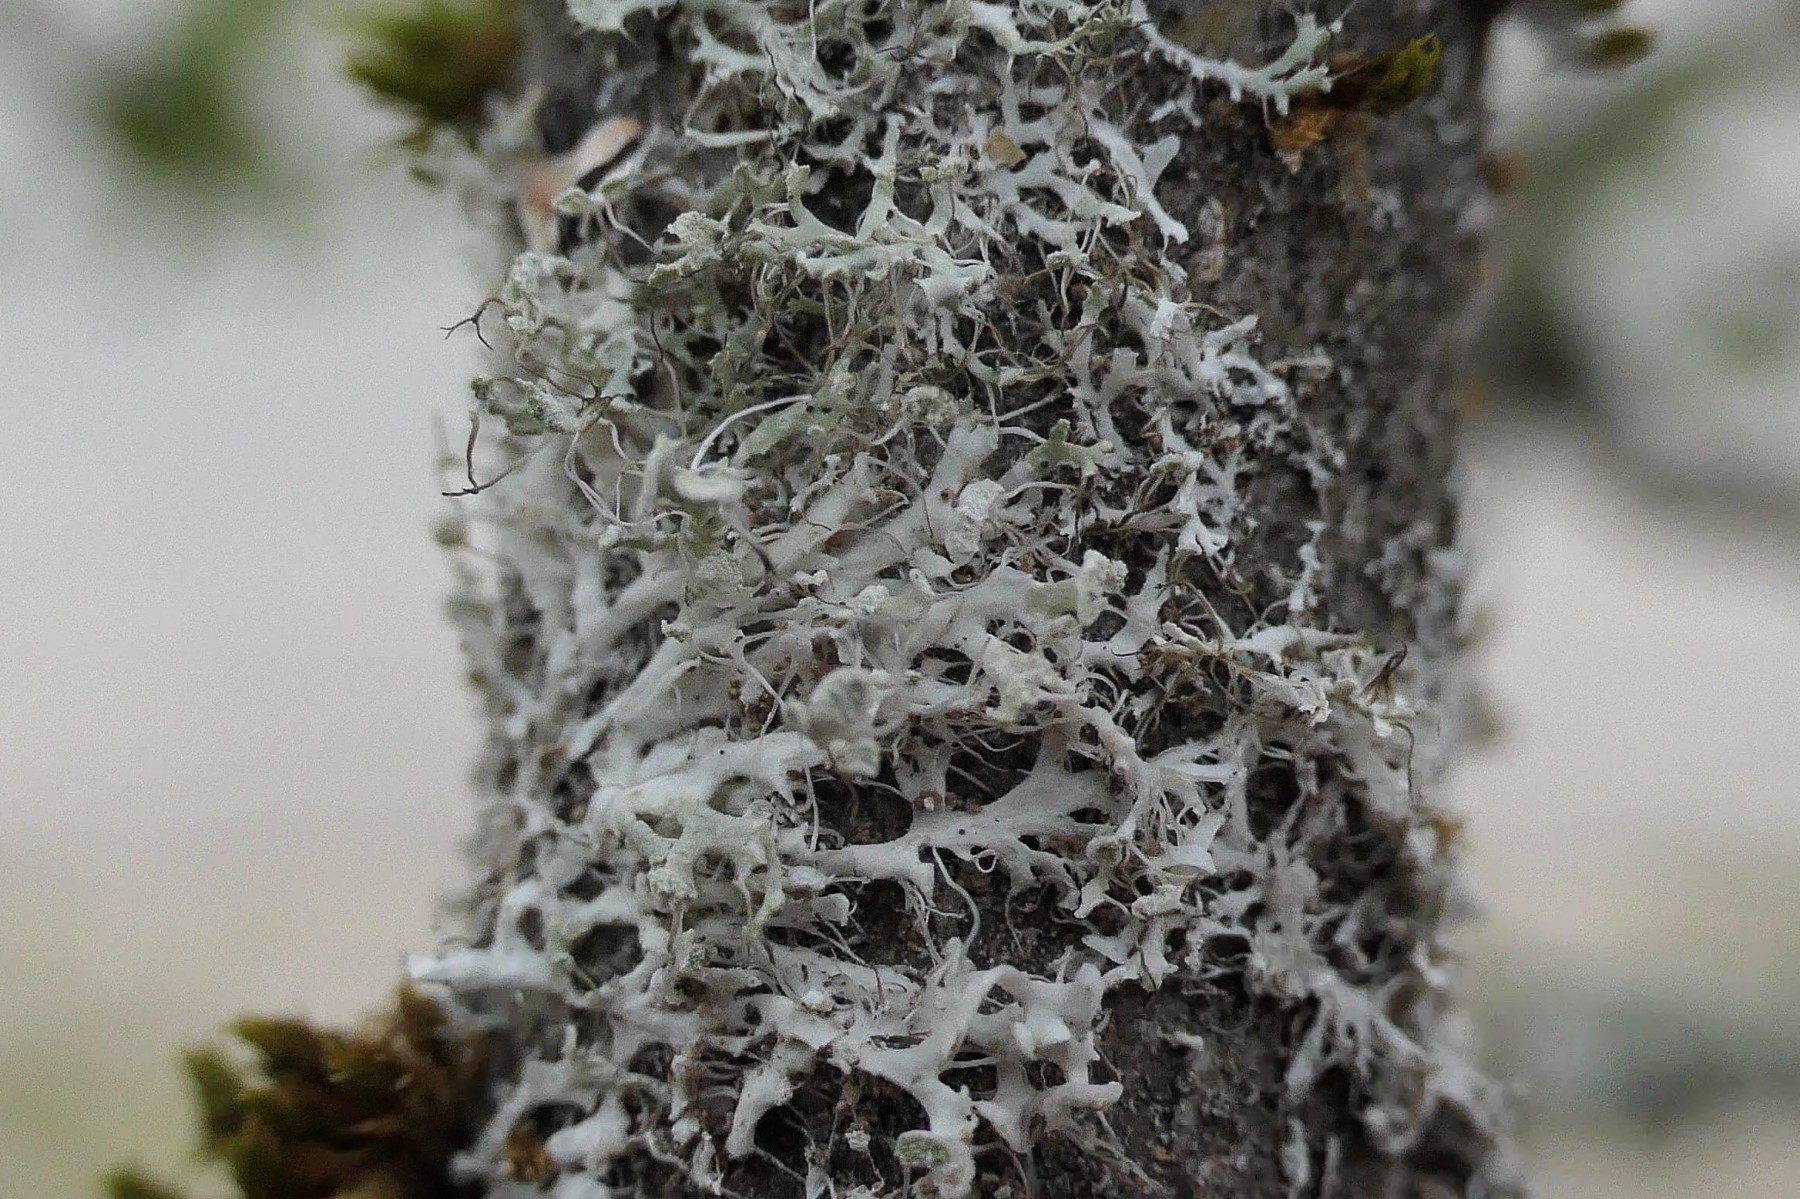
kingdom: Fungi
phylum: Ascomycota
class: Lecanoromycetes
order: Caliciales
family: Physciaceae
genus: Physcia
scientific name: Physcia tenella
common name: spæd rosetlav
